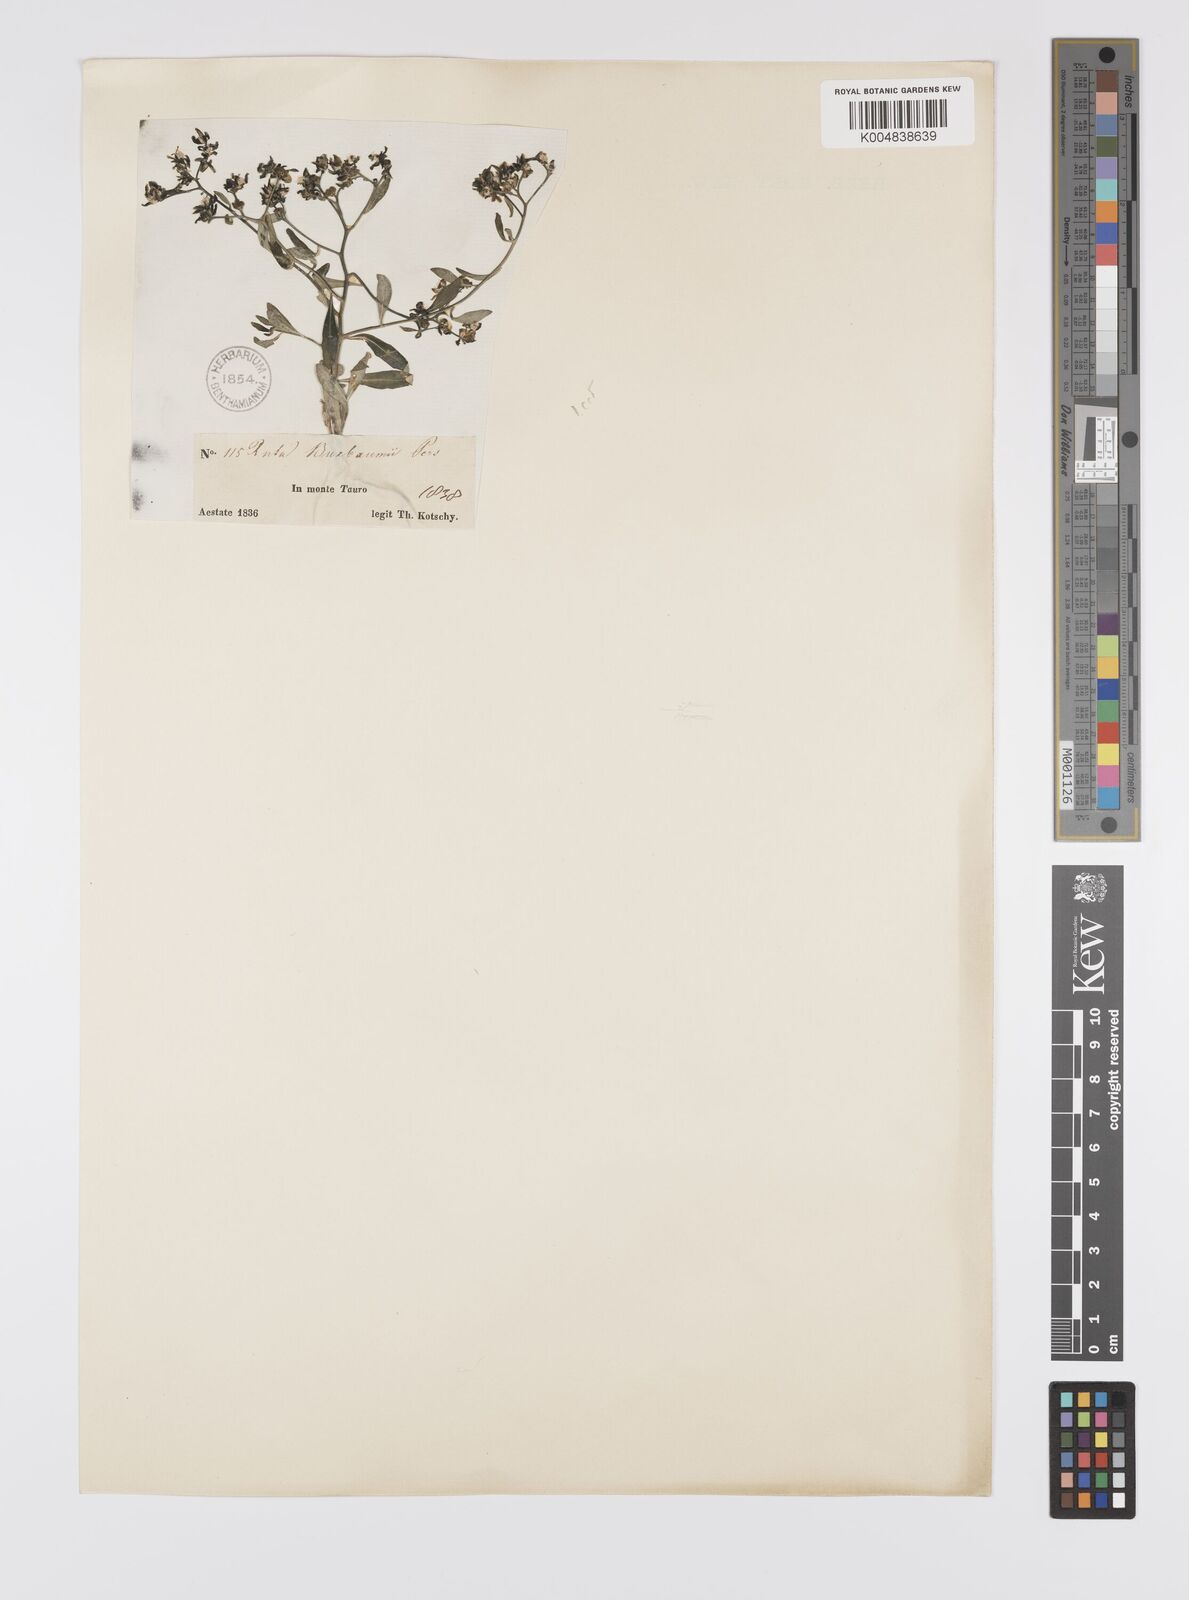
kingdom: Plantae
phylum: Tracheophyta
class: Magnoliopsida
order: Sapindales
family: Rutaceae
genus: Haplophyllum
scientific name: Haplophyllum
